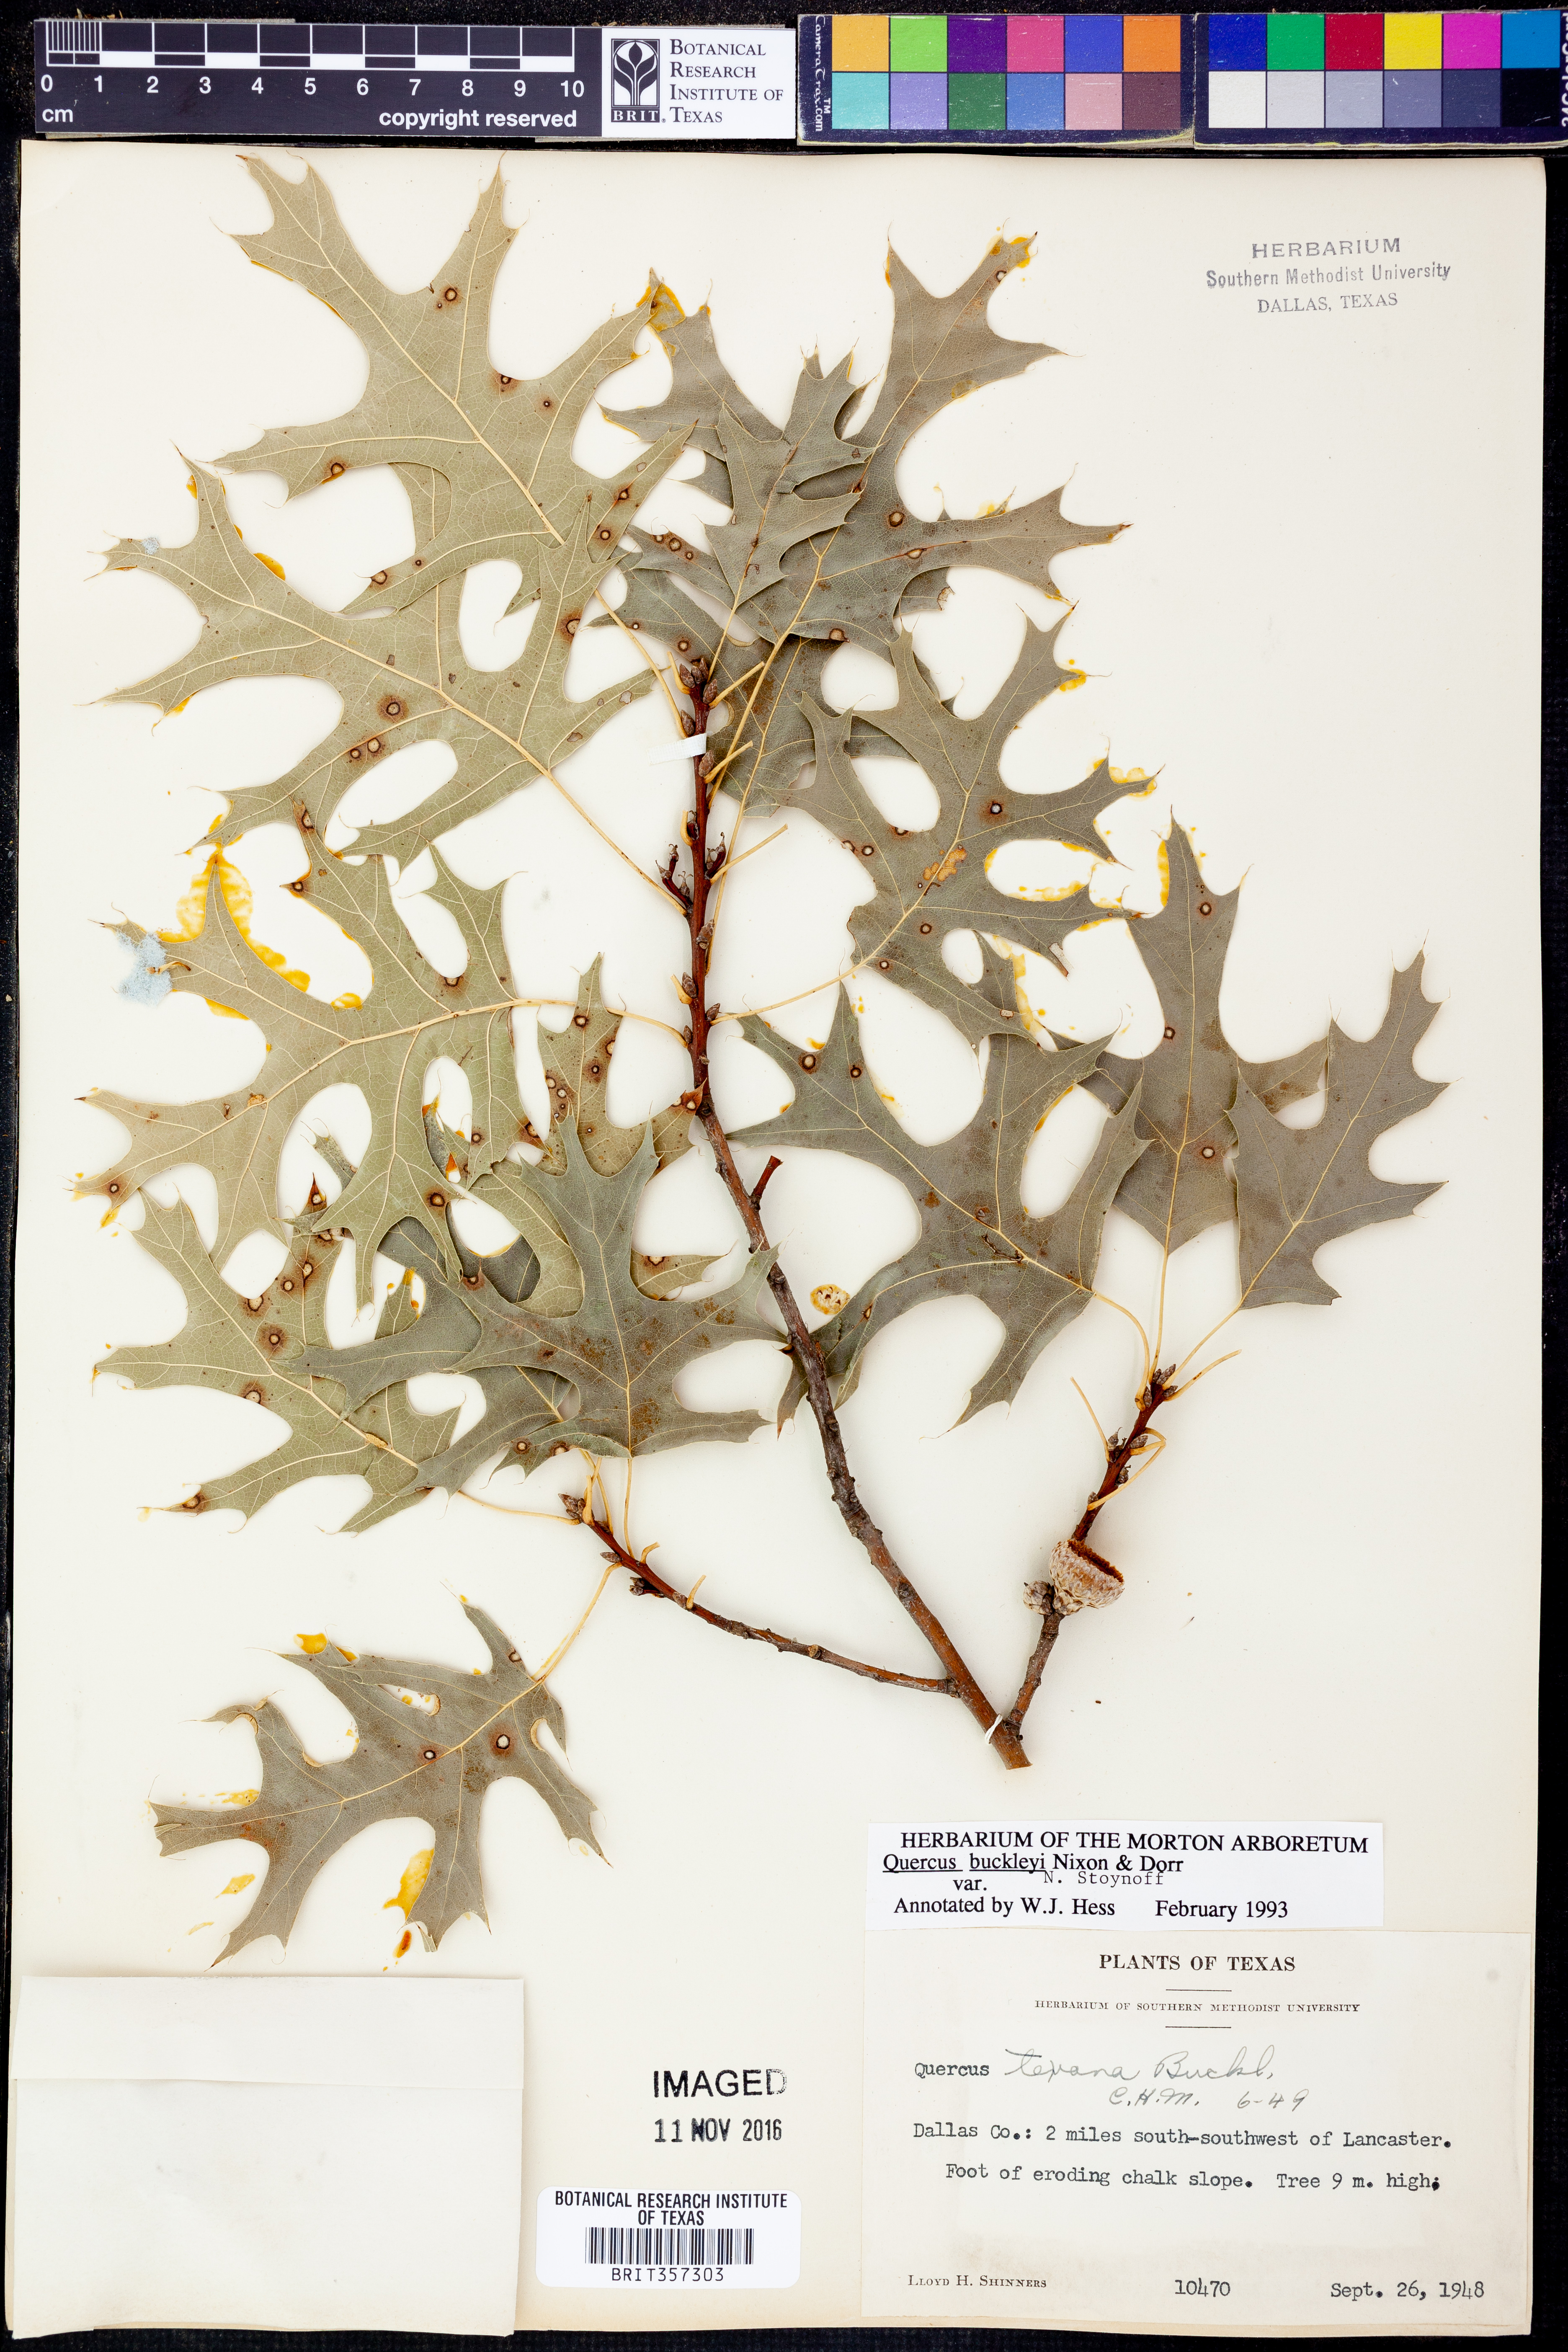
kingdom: Plantae
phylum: Tracheophyta
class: Magnoliopsida
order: Fagales
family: Fagaceae
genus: Quercus
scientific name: Quercus buckleyi
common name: Buckley oak
